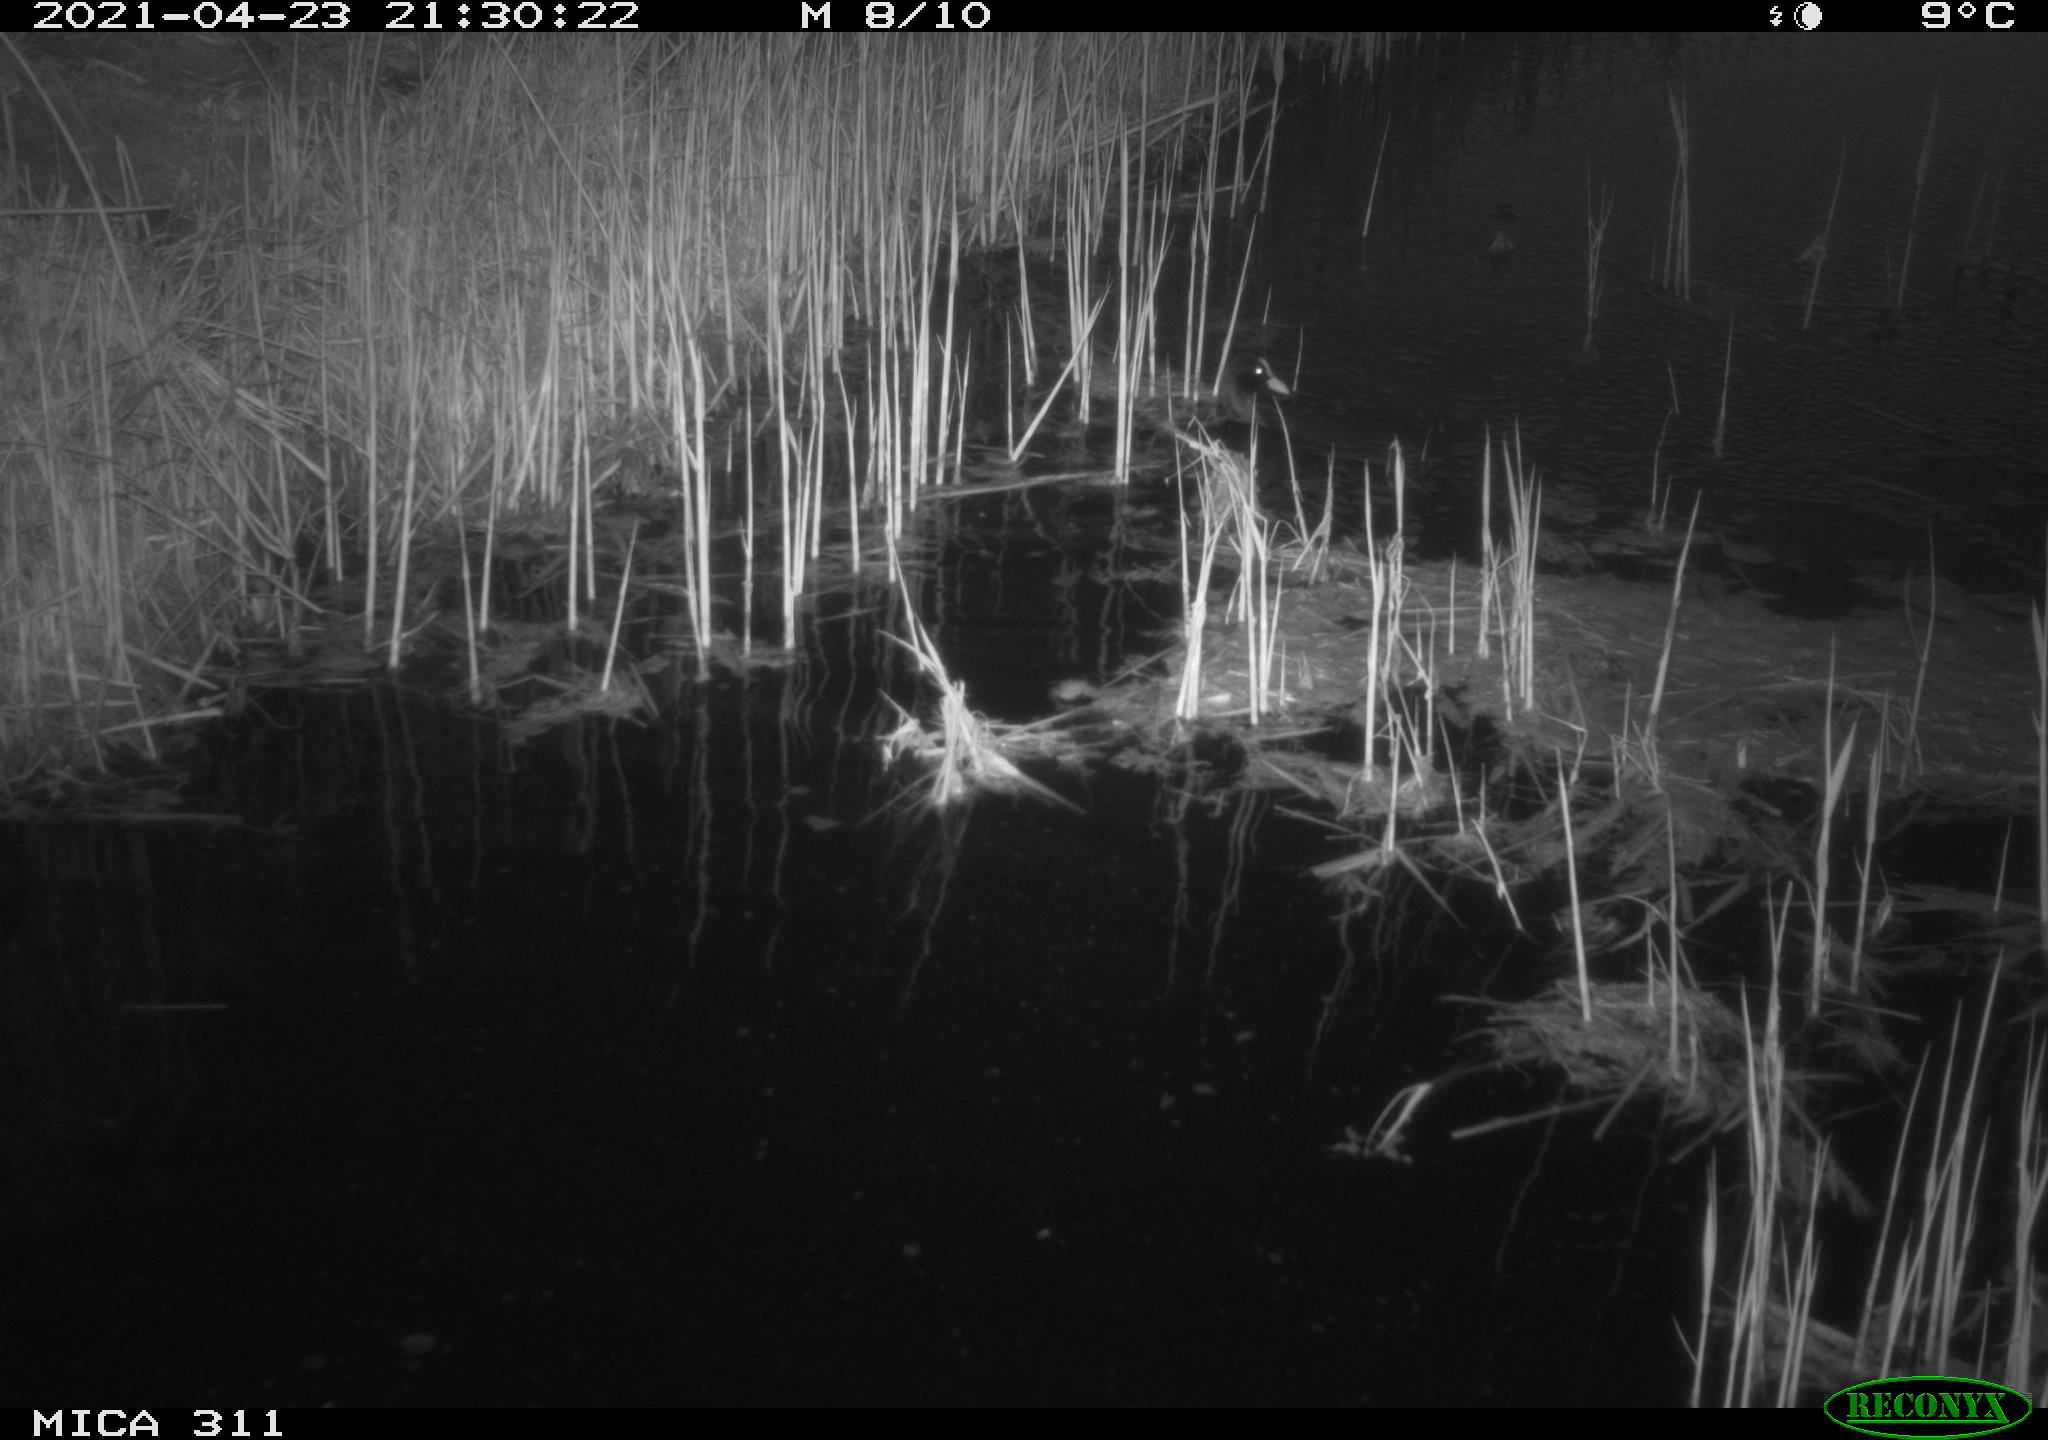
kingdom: Animalia
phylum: Chordata
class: Aves
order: Gruiformes
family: Rallidae
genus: Fulica
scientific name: Fulica atra
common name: Eurasian coot
